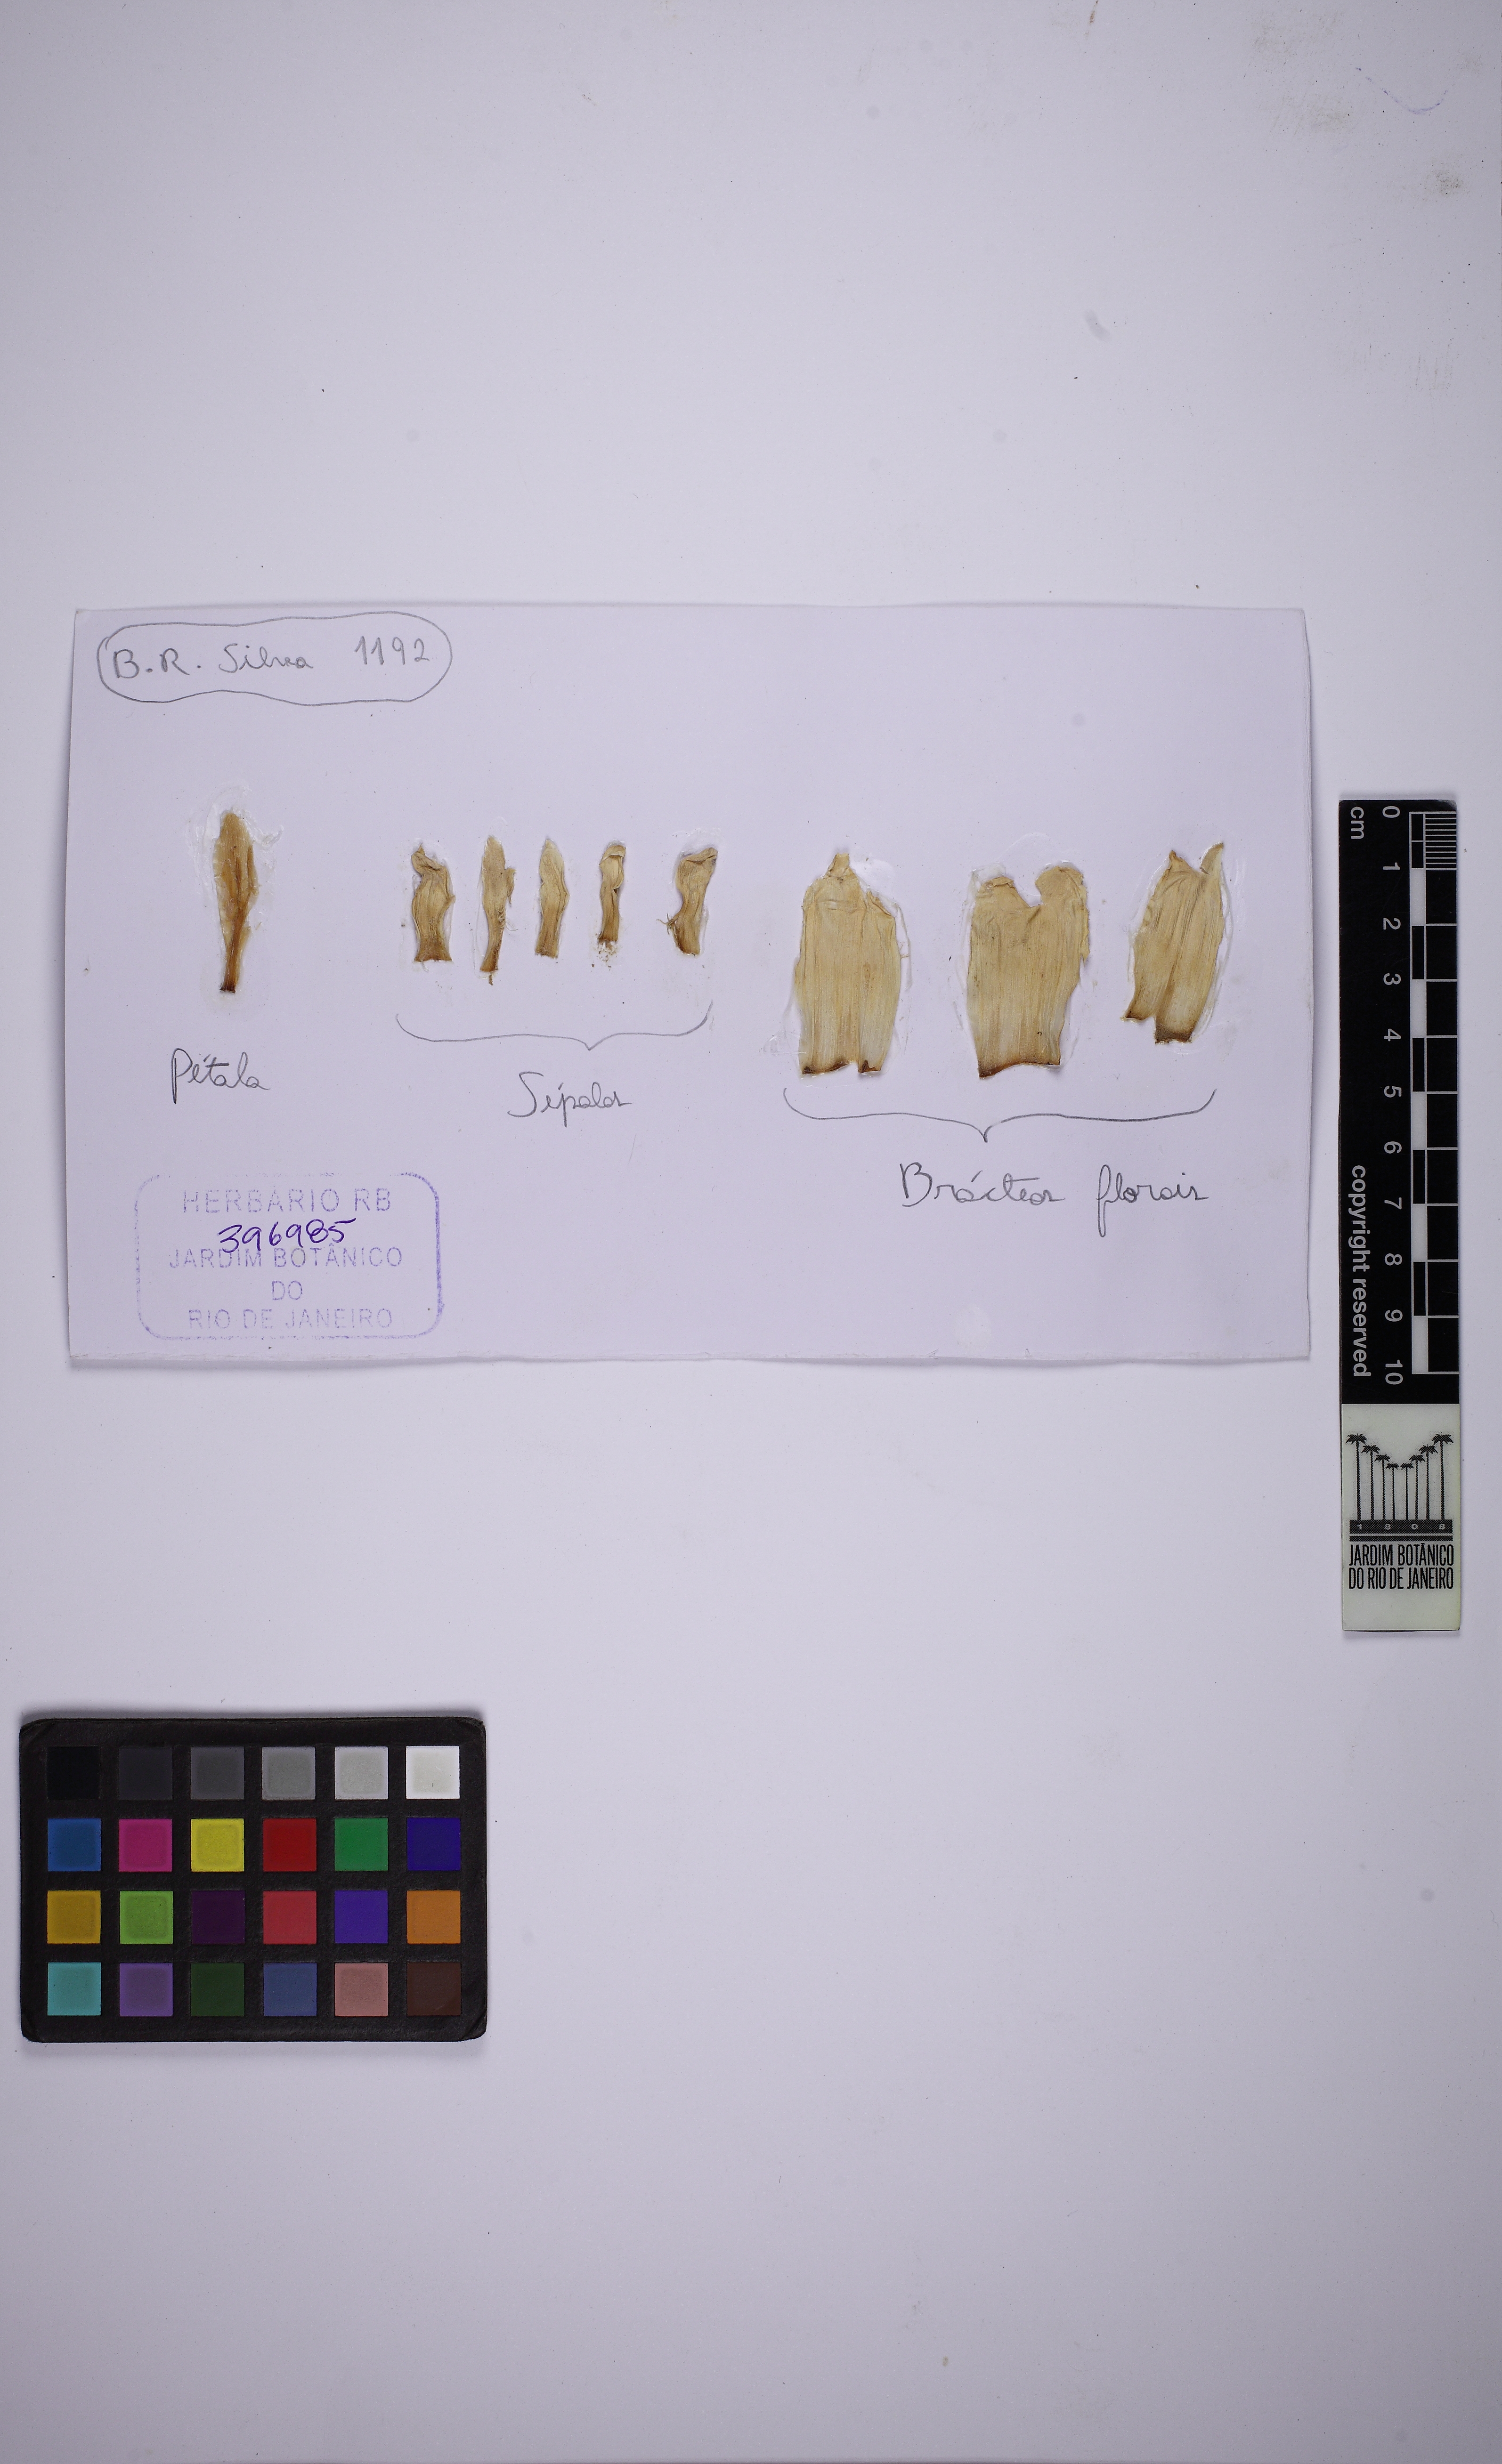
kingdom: Plantae
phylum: Tracheophyta
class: Liliopsida
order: Poales
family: Bromeliaceae
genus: Bromelia
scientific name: Bromelia goyazensis
